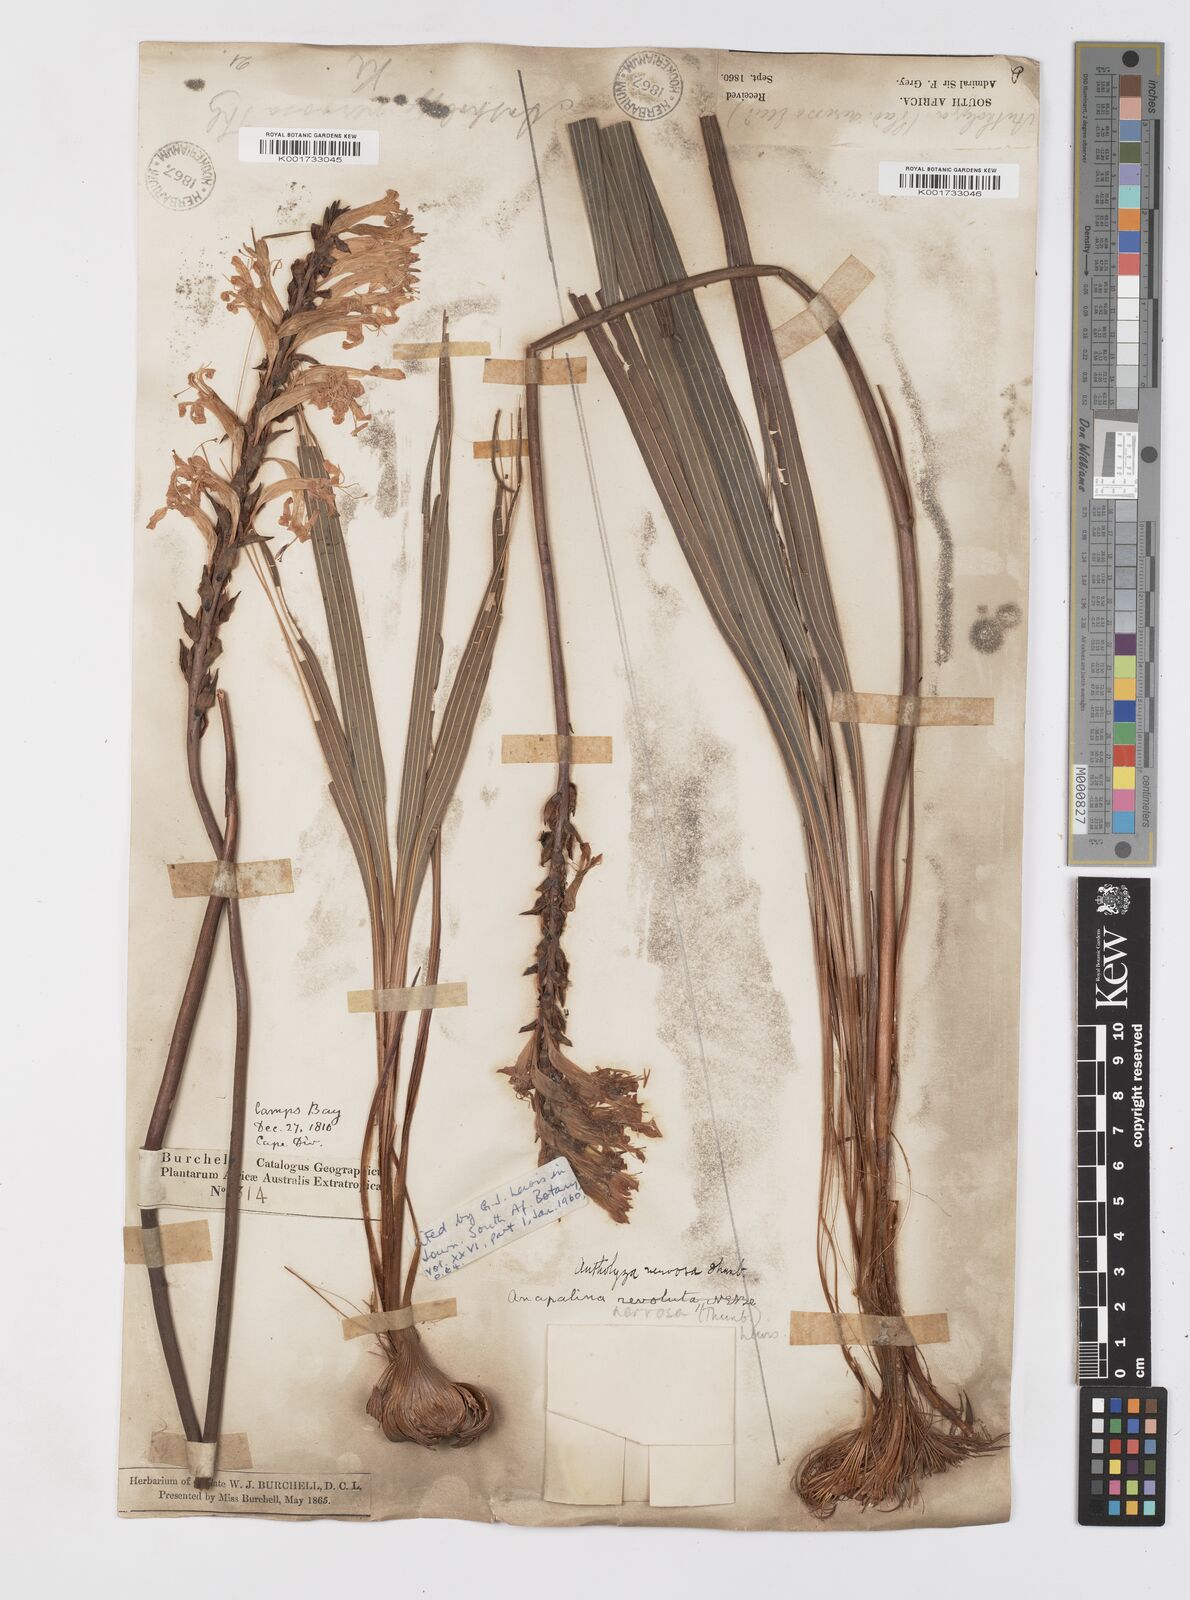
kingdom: Plantae
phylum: Tracheophyta
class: Liliopsida
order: Asparagales
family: Iridaceae
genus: Tritoniopsis
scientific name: Tritoniopsis nervosa
